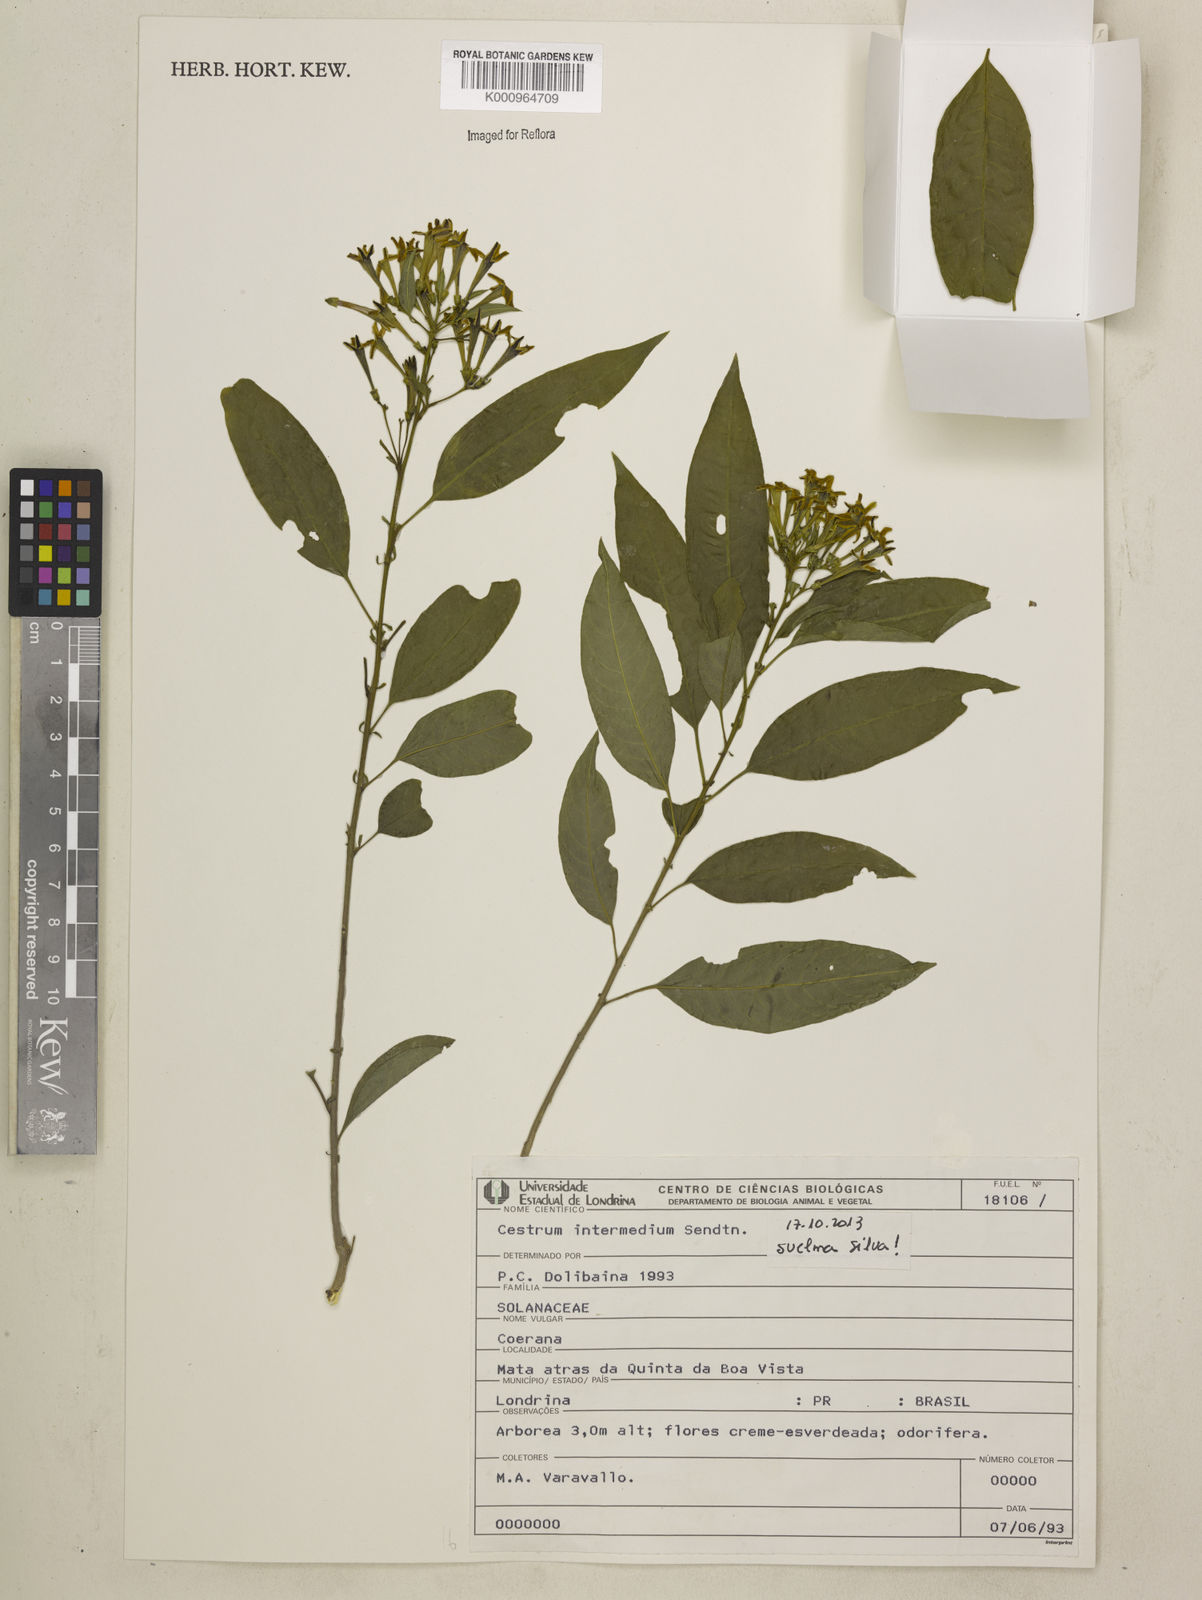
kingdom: Plantae
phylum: Tracheophyta
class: Magnoliopsida
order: Solanales
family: Solanaceae
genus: Cestrum
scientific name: Cestrum intermedium
